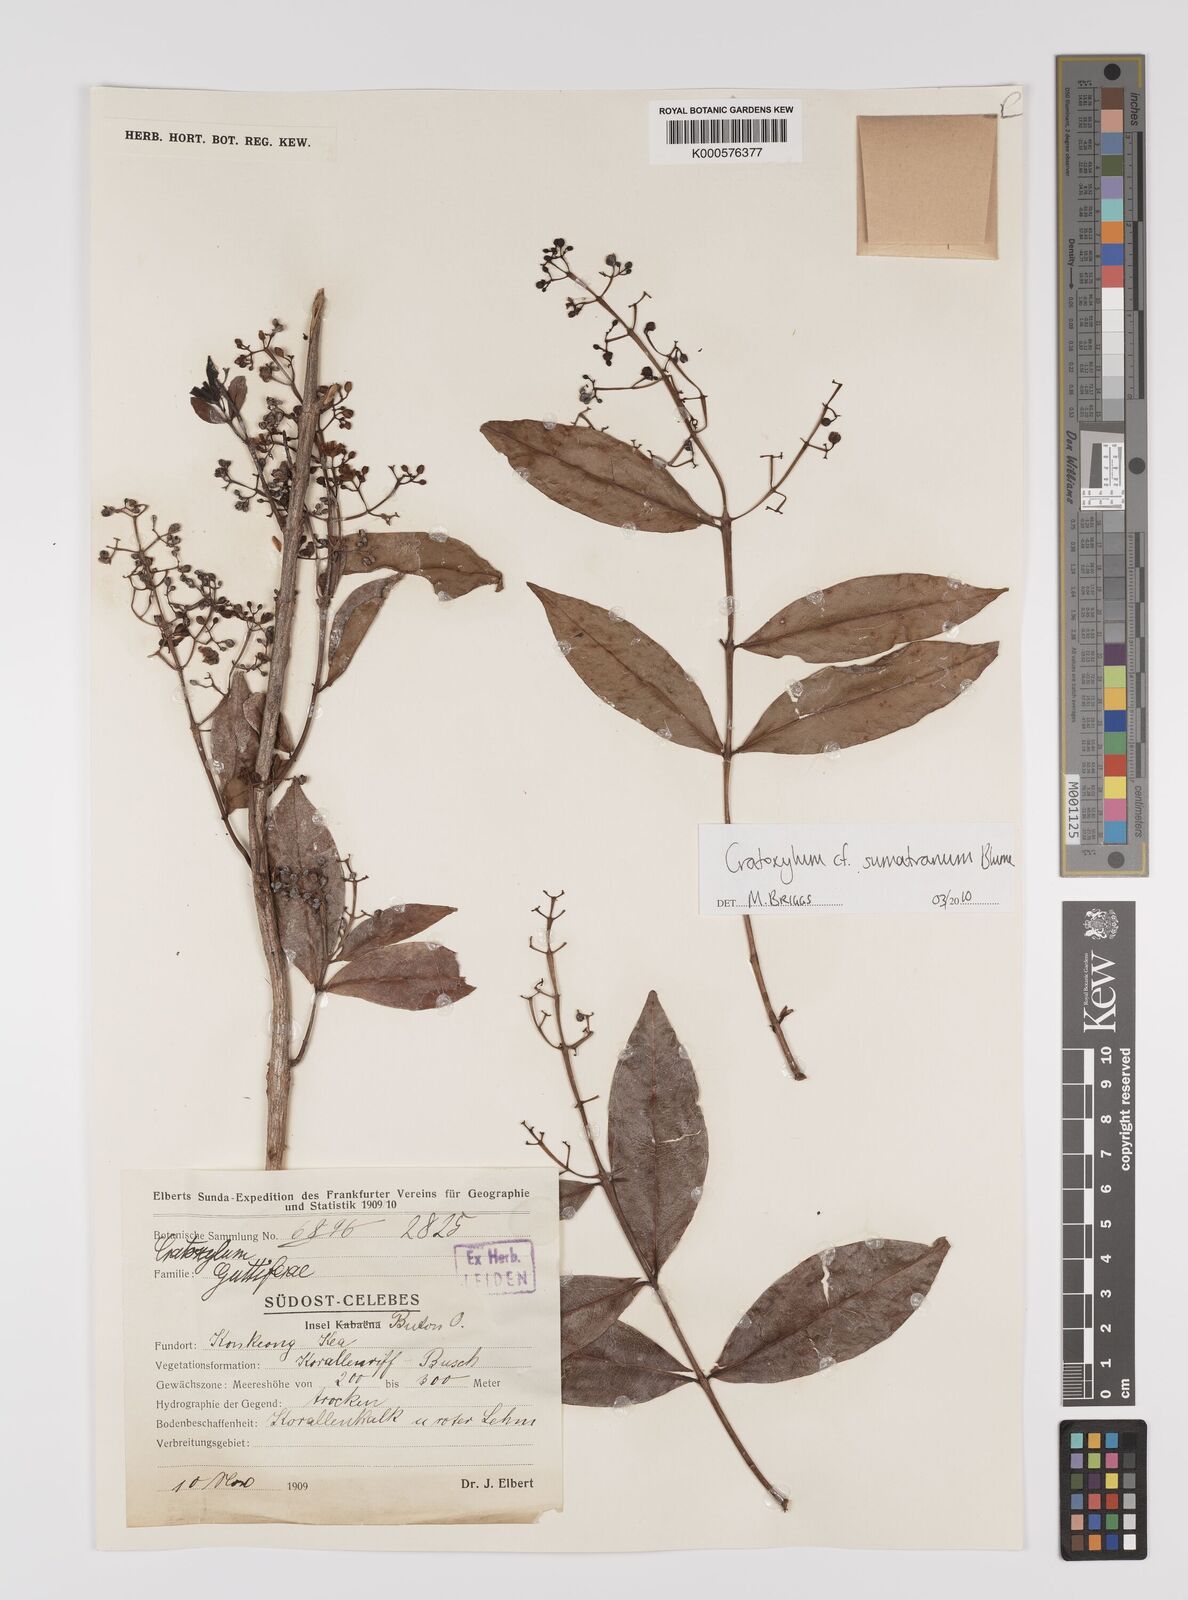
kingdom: Plantae
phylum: Tracheophyta
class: Magnoliopsida
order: Malpighiales
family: Hypericaceae
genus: Cratoxylum
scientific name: Cratoxylum sumatranum
